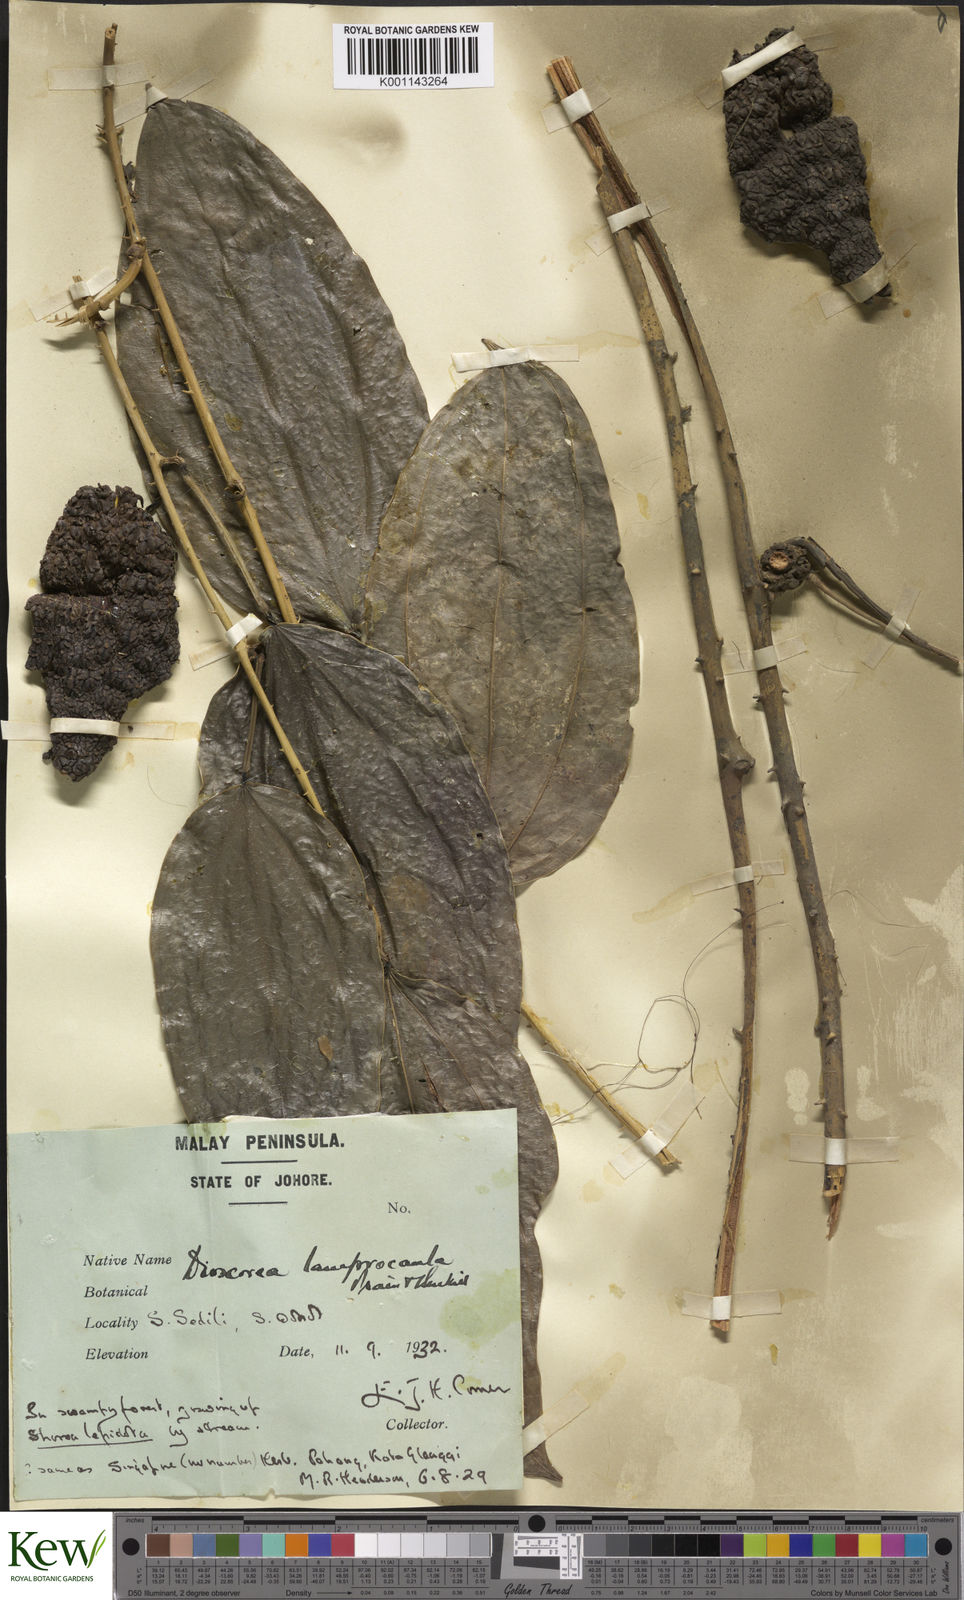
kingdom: Plantae
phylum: Tracheophyta
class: Liliopsida
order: Dioscoreales
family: Dioscoreaceae
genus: Dioscorea
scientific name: Dioscorea lamprocaula
